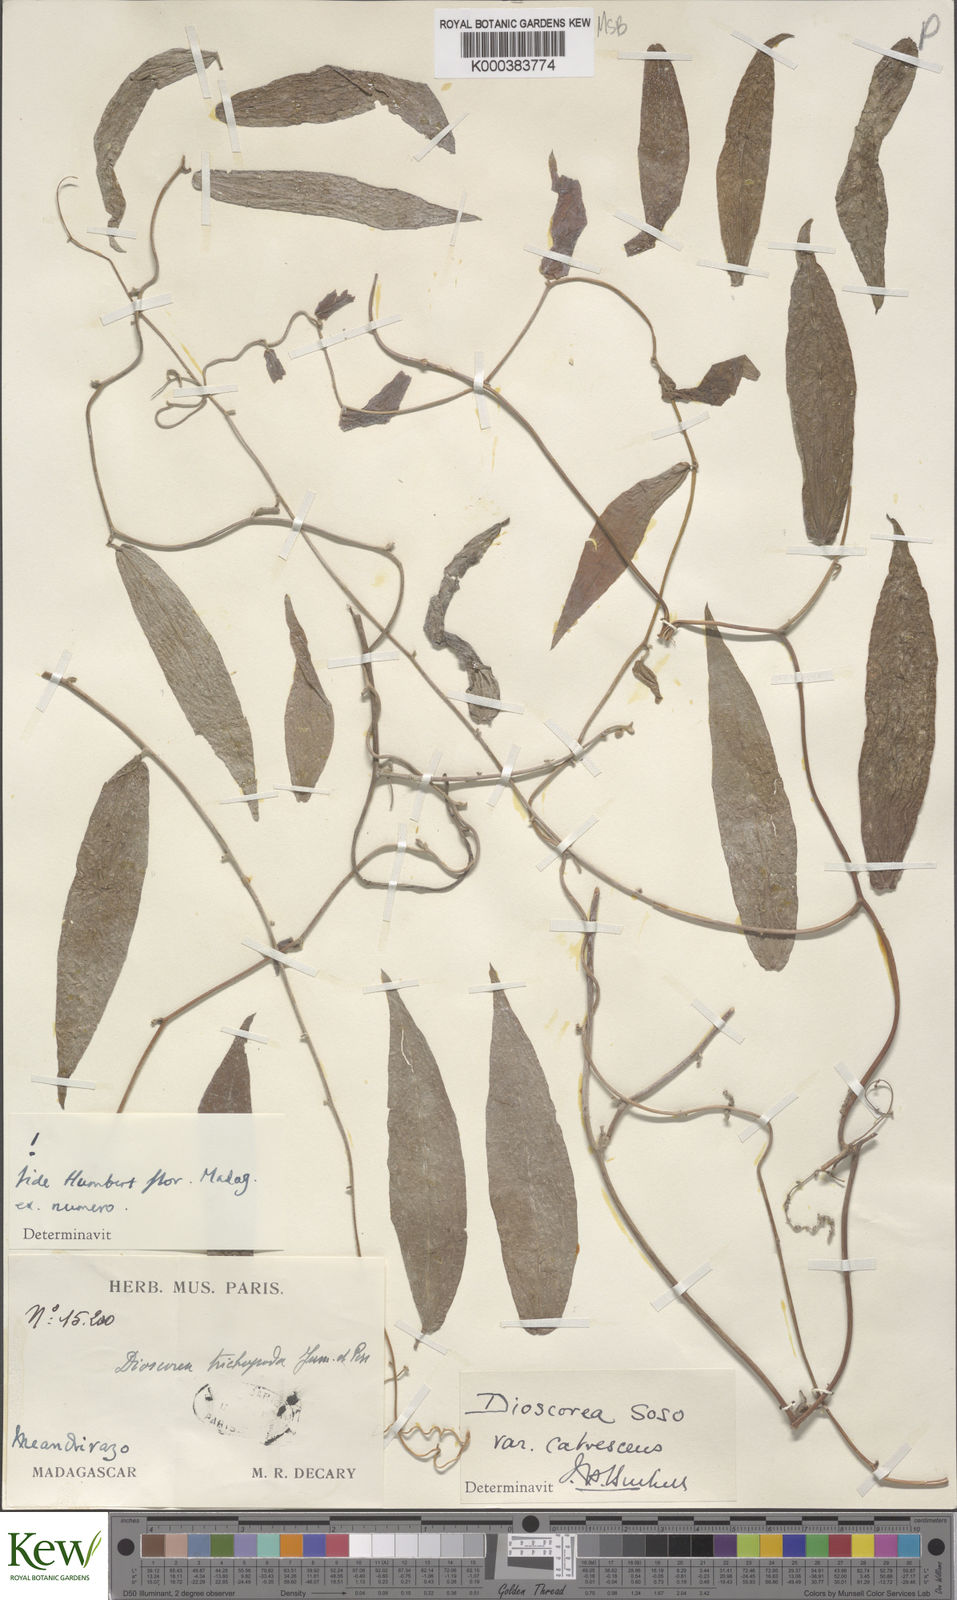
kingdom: Plantae
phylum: Tracheophyta
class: Liliopsida
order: Dioscoreales
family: Dioscoreaceae
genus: Dioscorea
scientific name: Dioscorea
